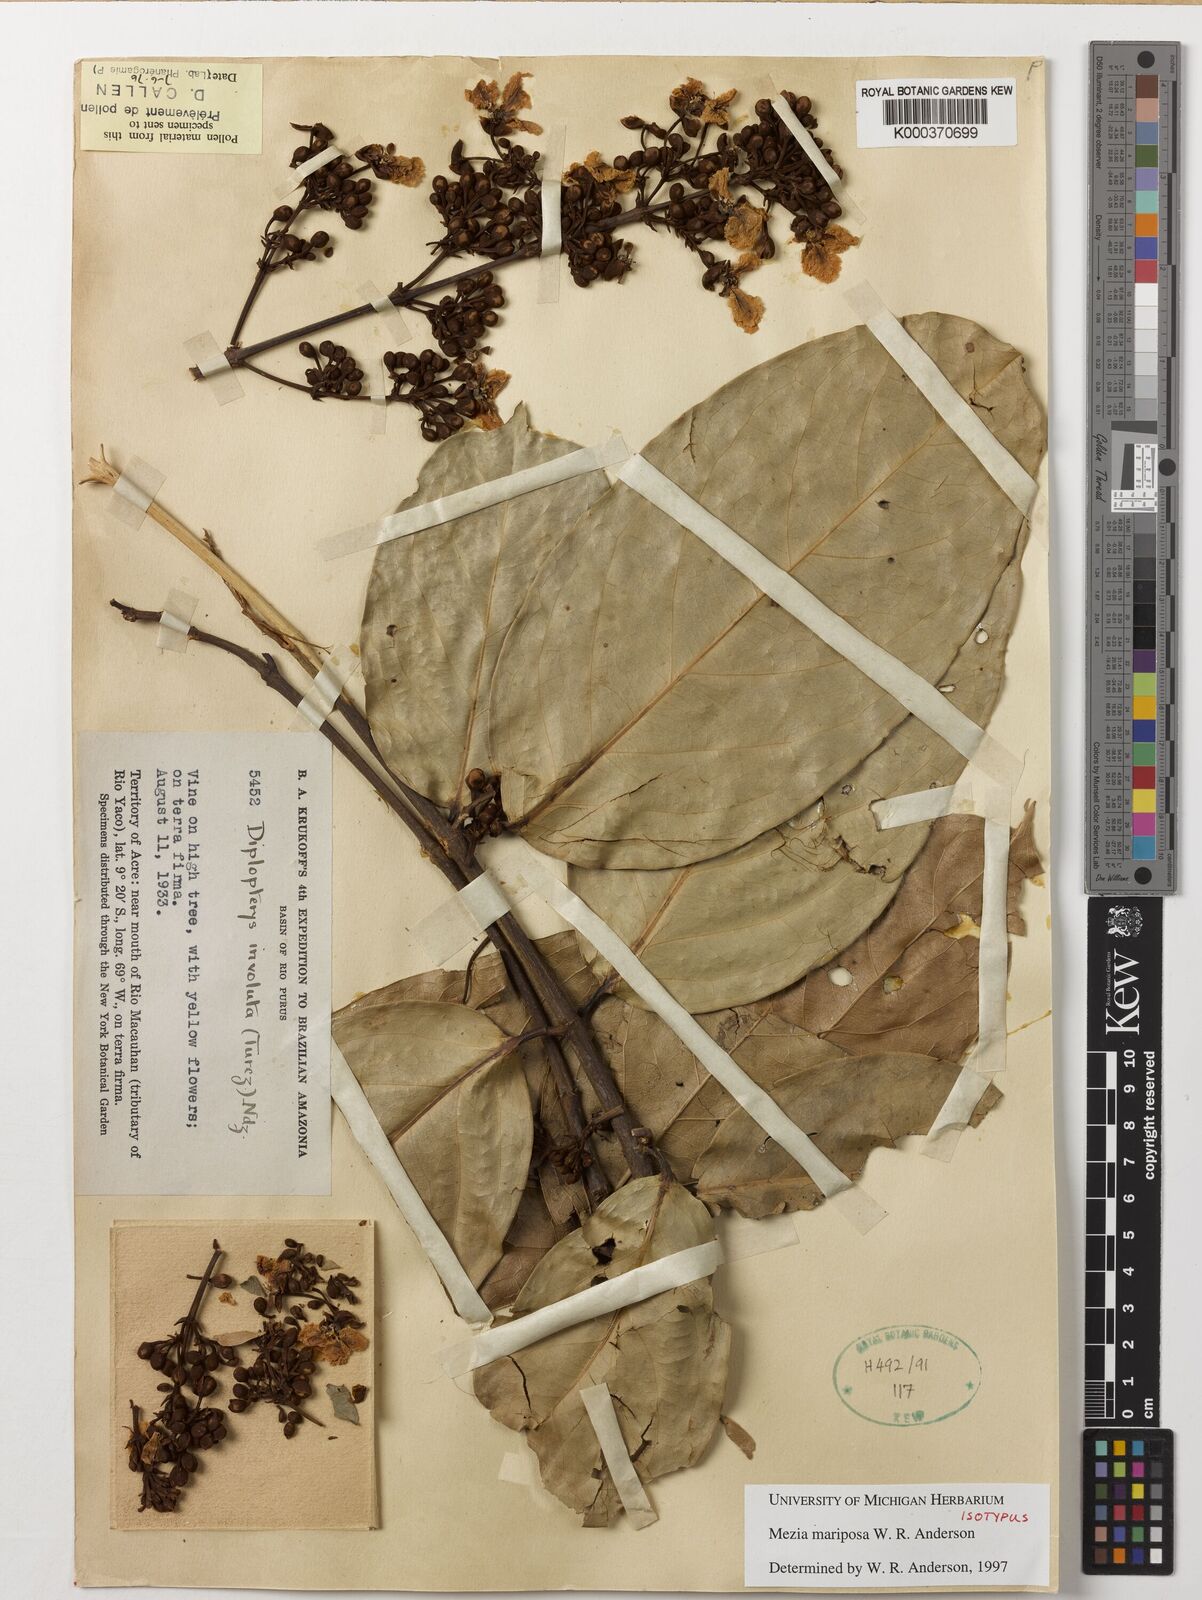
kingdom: Plantae
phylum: Tracheophyta
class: Magnoliopsida
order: Malpighiales
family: Malpighiaceae
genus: Mezia
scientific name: Mezia mariposa
